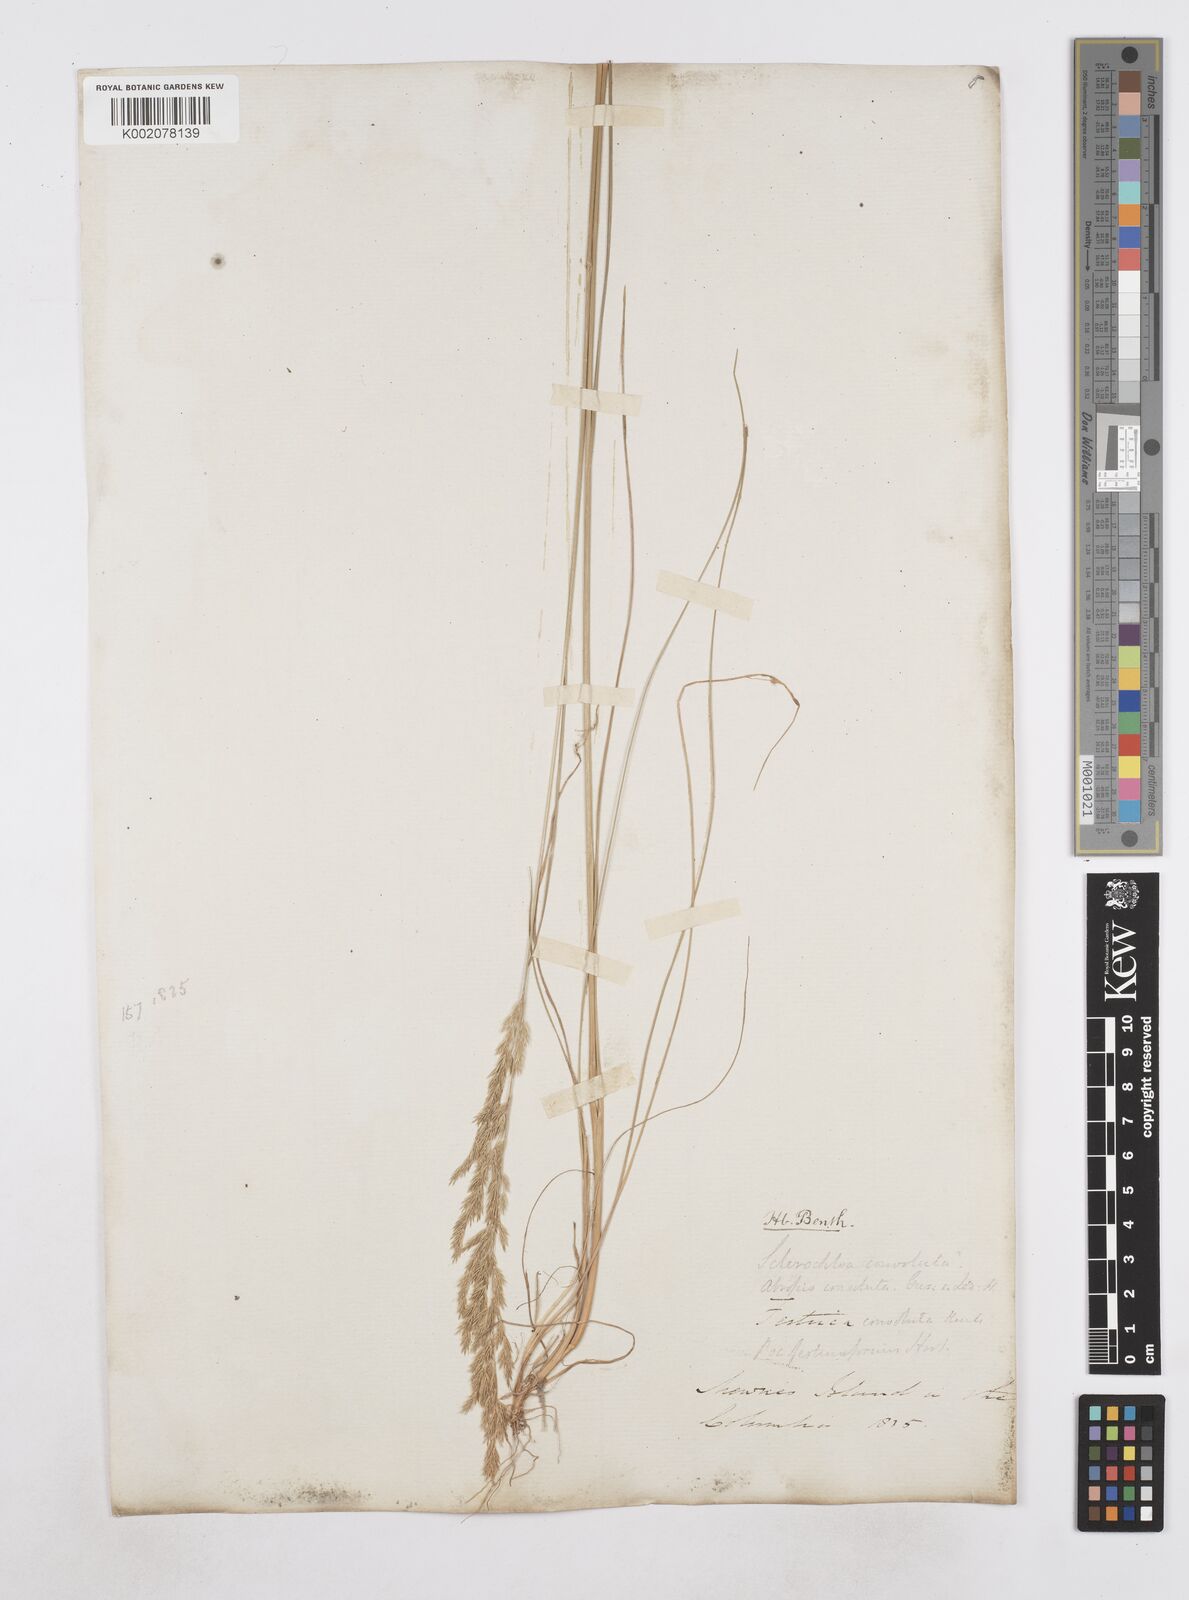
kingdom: Plantae
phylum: Tracheophyta
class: Liliopsida
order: Poales
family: Poaceae
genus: Poa
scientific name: Poa
